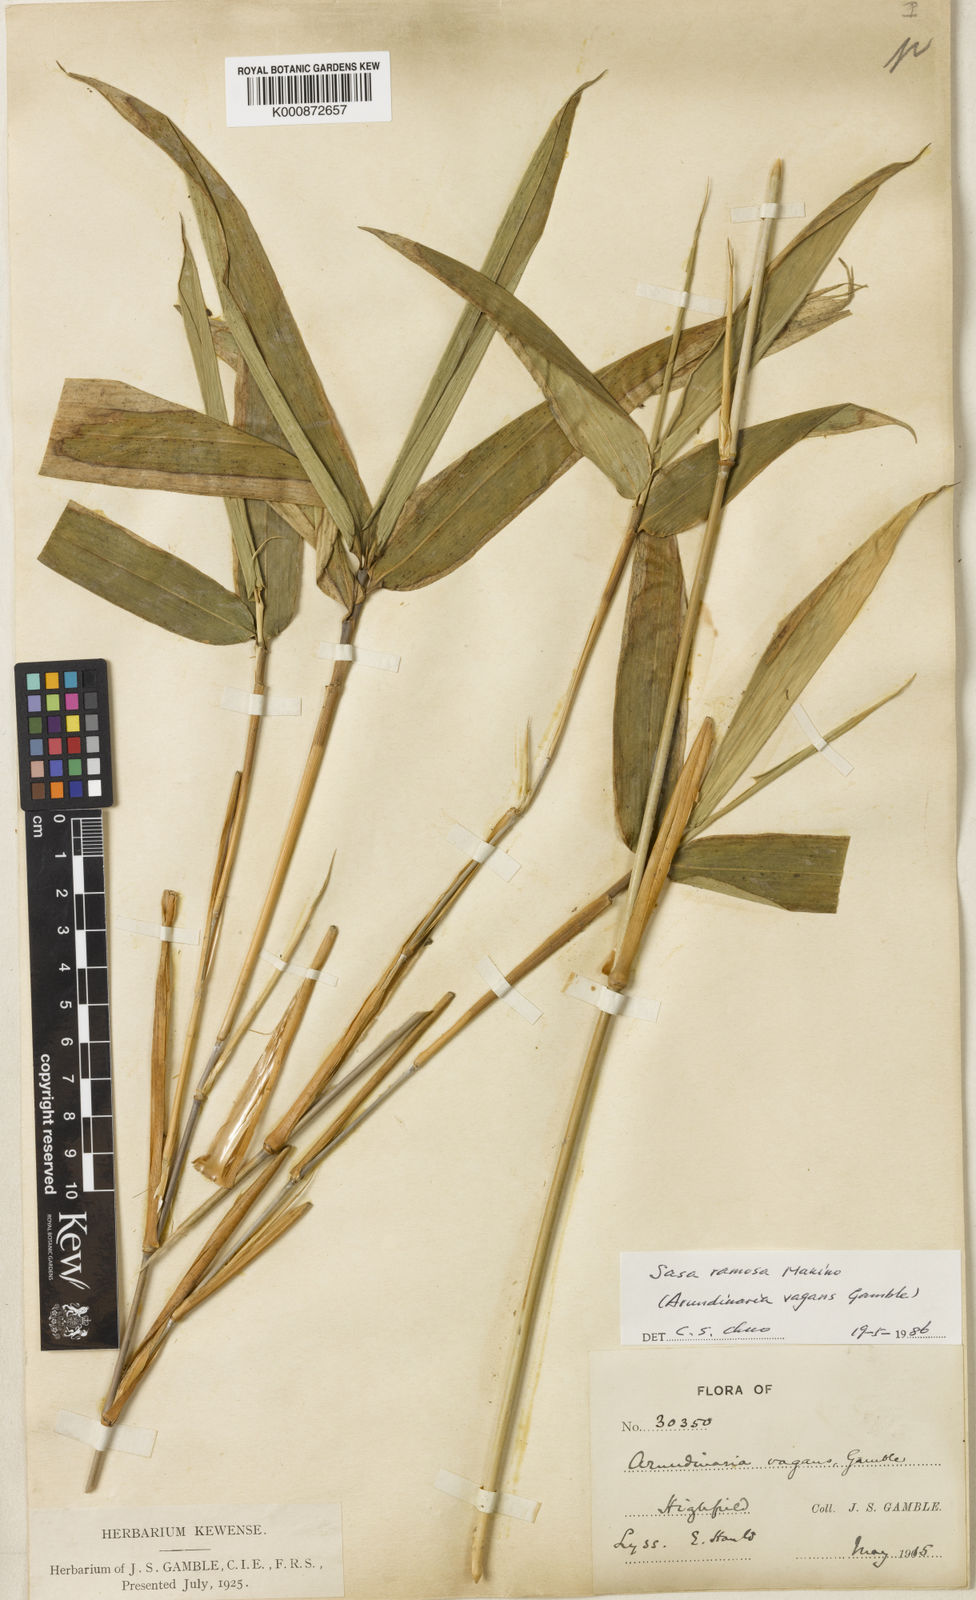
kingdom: Plantae
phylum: Tracheophyta
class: Liliopsida
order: Poales
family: Poaceae
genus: Sasa
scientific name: Sasa
